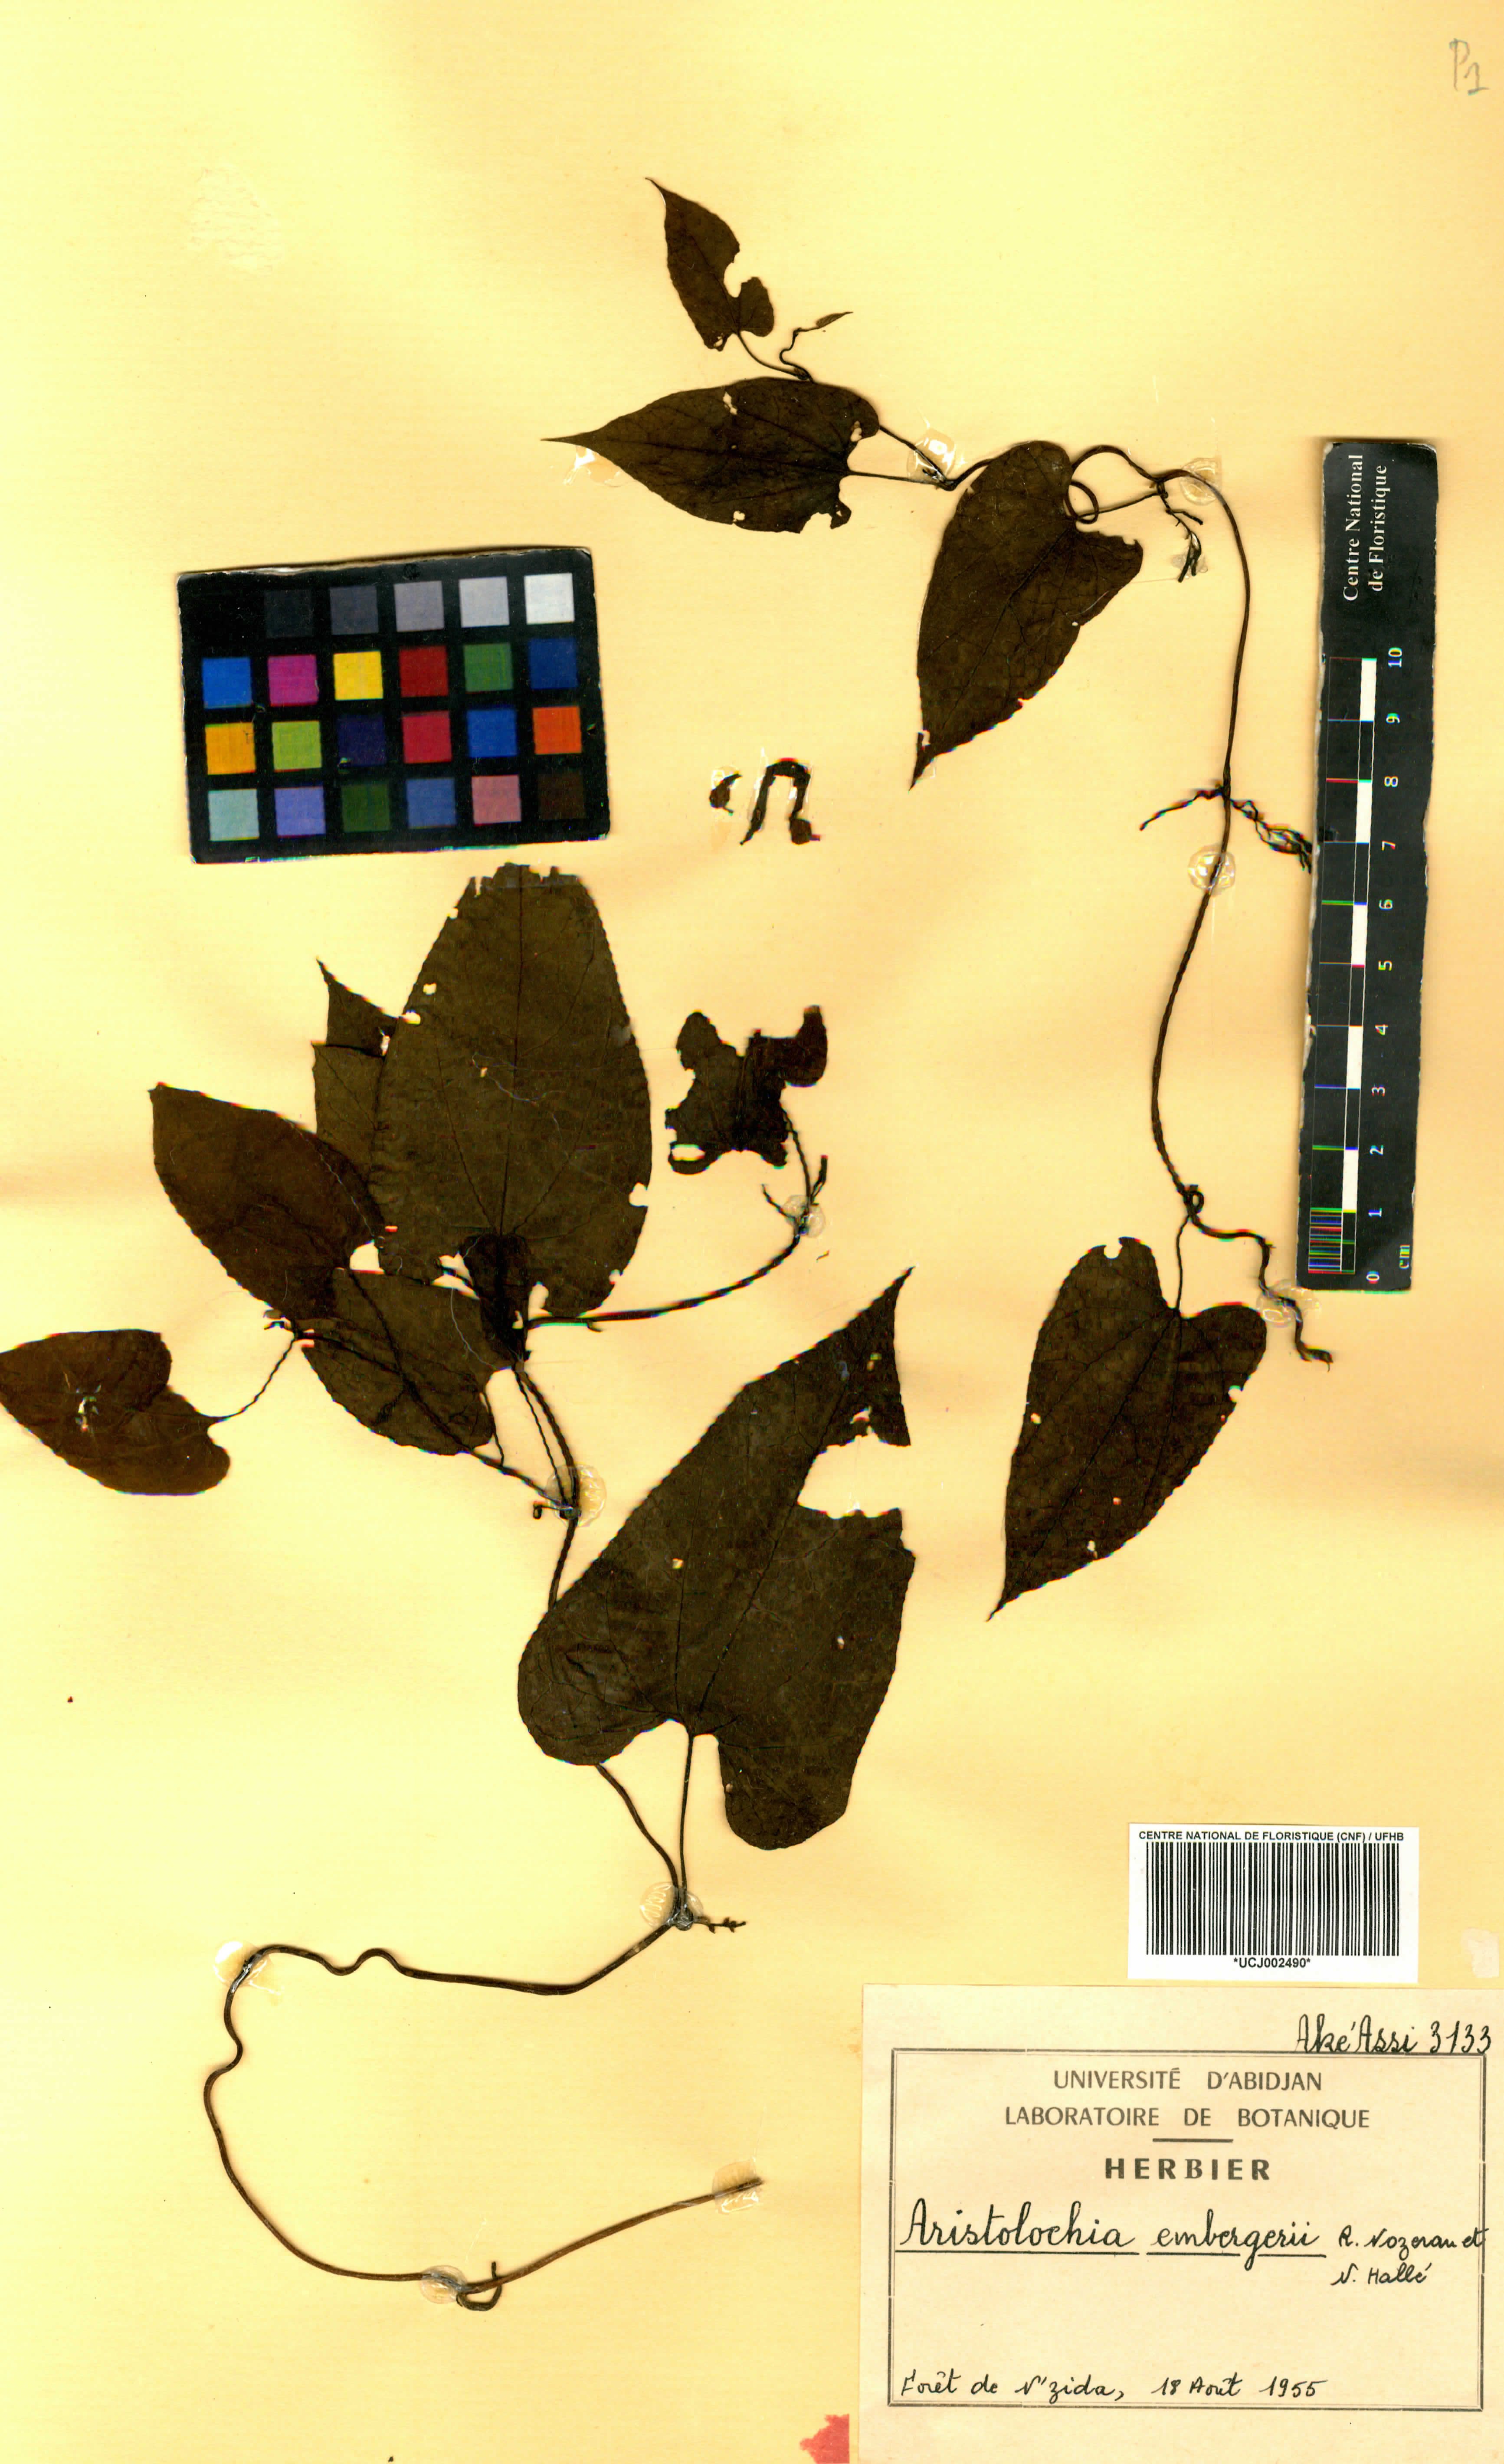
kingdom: Plantae
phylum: Tracheophyta
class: Magnoliopsida
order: Piperales
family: Aristolochiaceae
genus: Aristolochia
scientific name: Aristolochia embergeri
